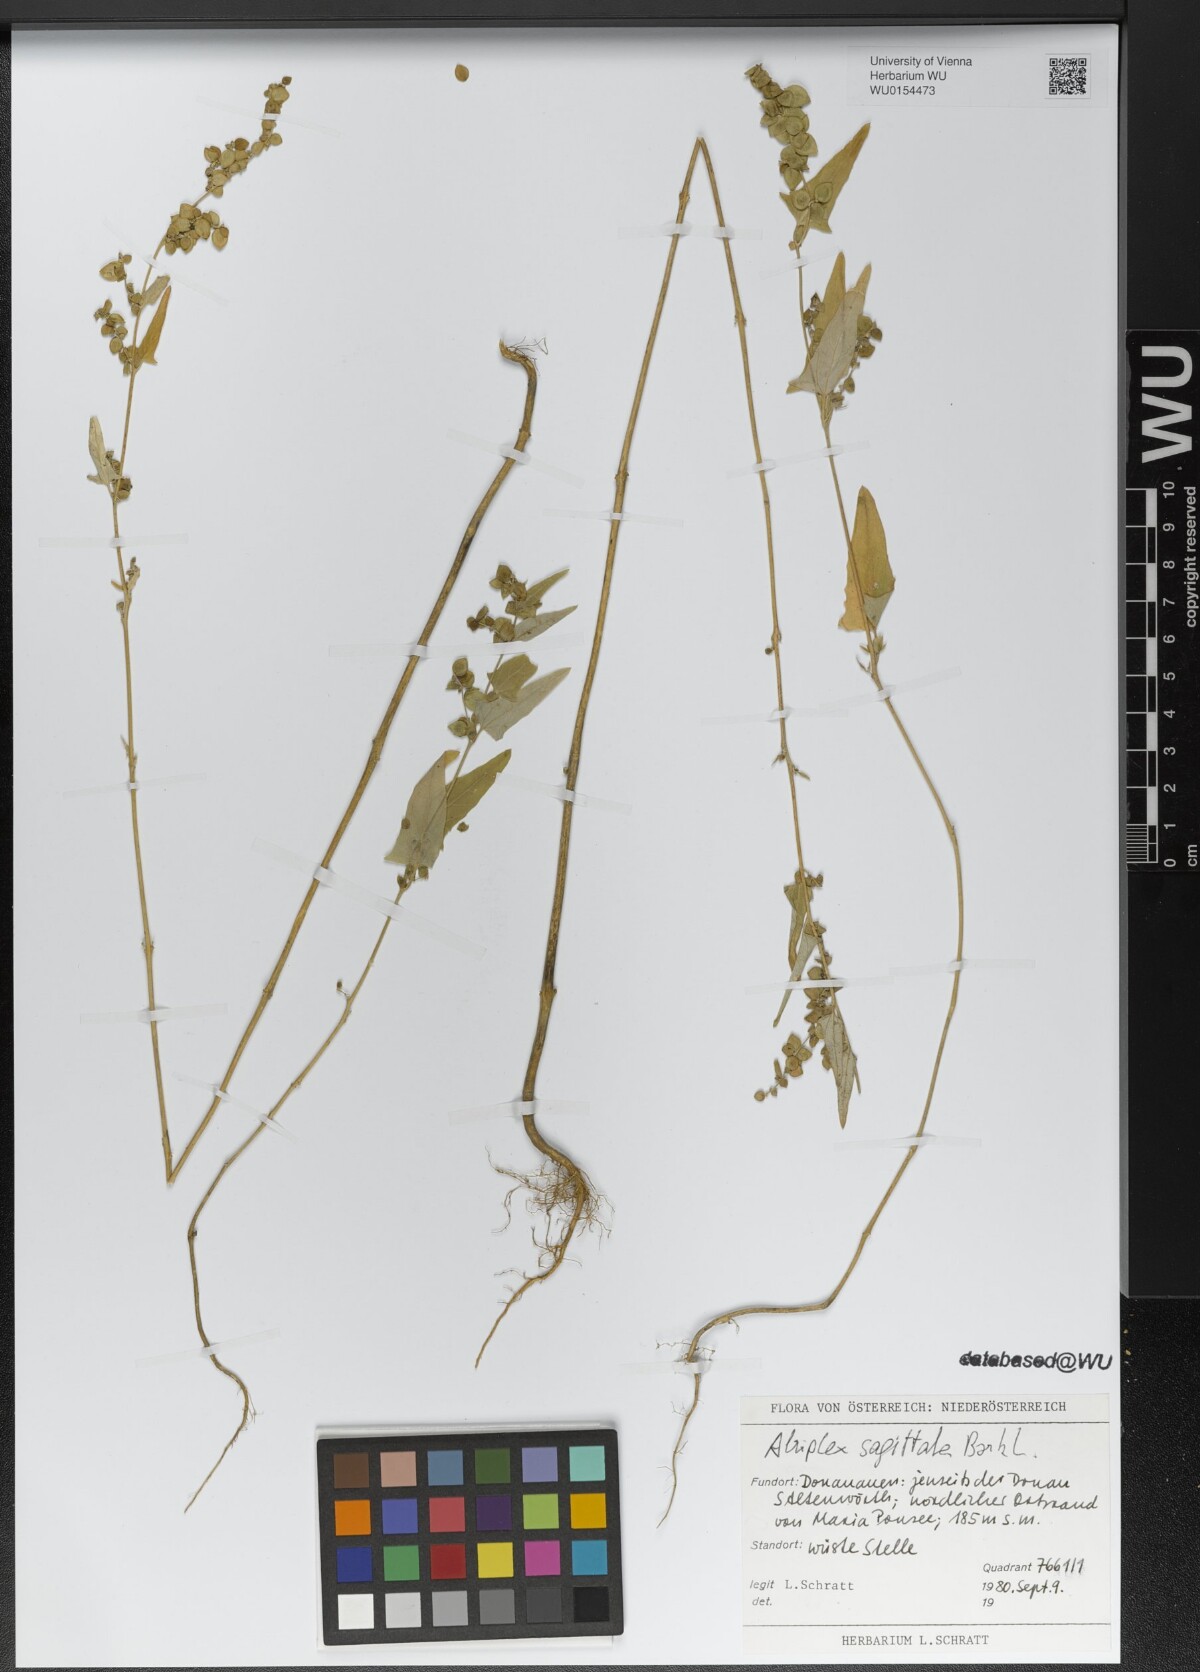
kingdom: Plantae
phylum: Tracheophyta
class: Magnoliopsida
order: Caryophyllales
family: Amaranthaceae
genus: Atriplex
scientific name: Atriplex sagittata
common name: Purple orache
